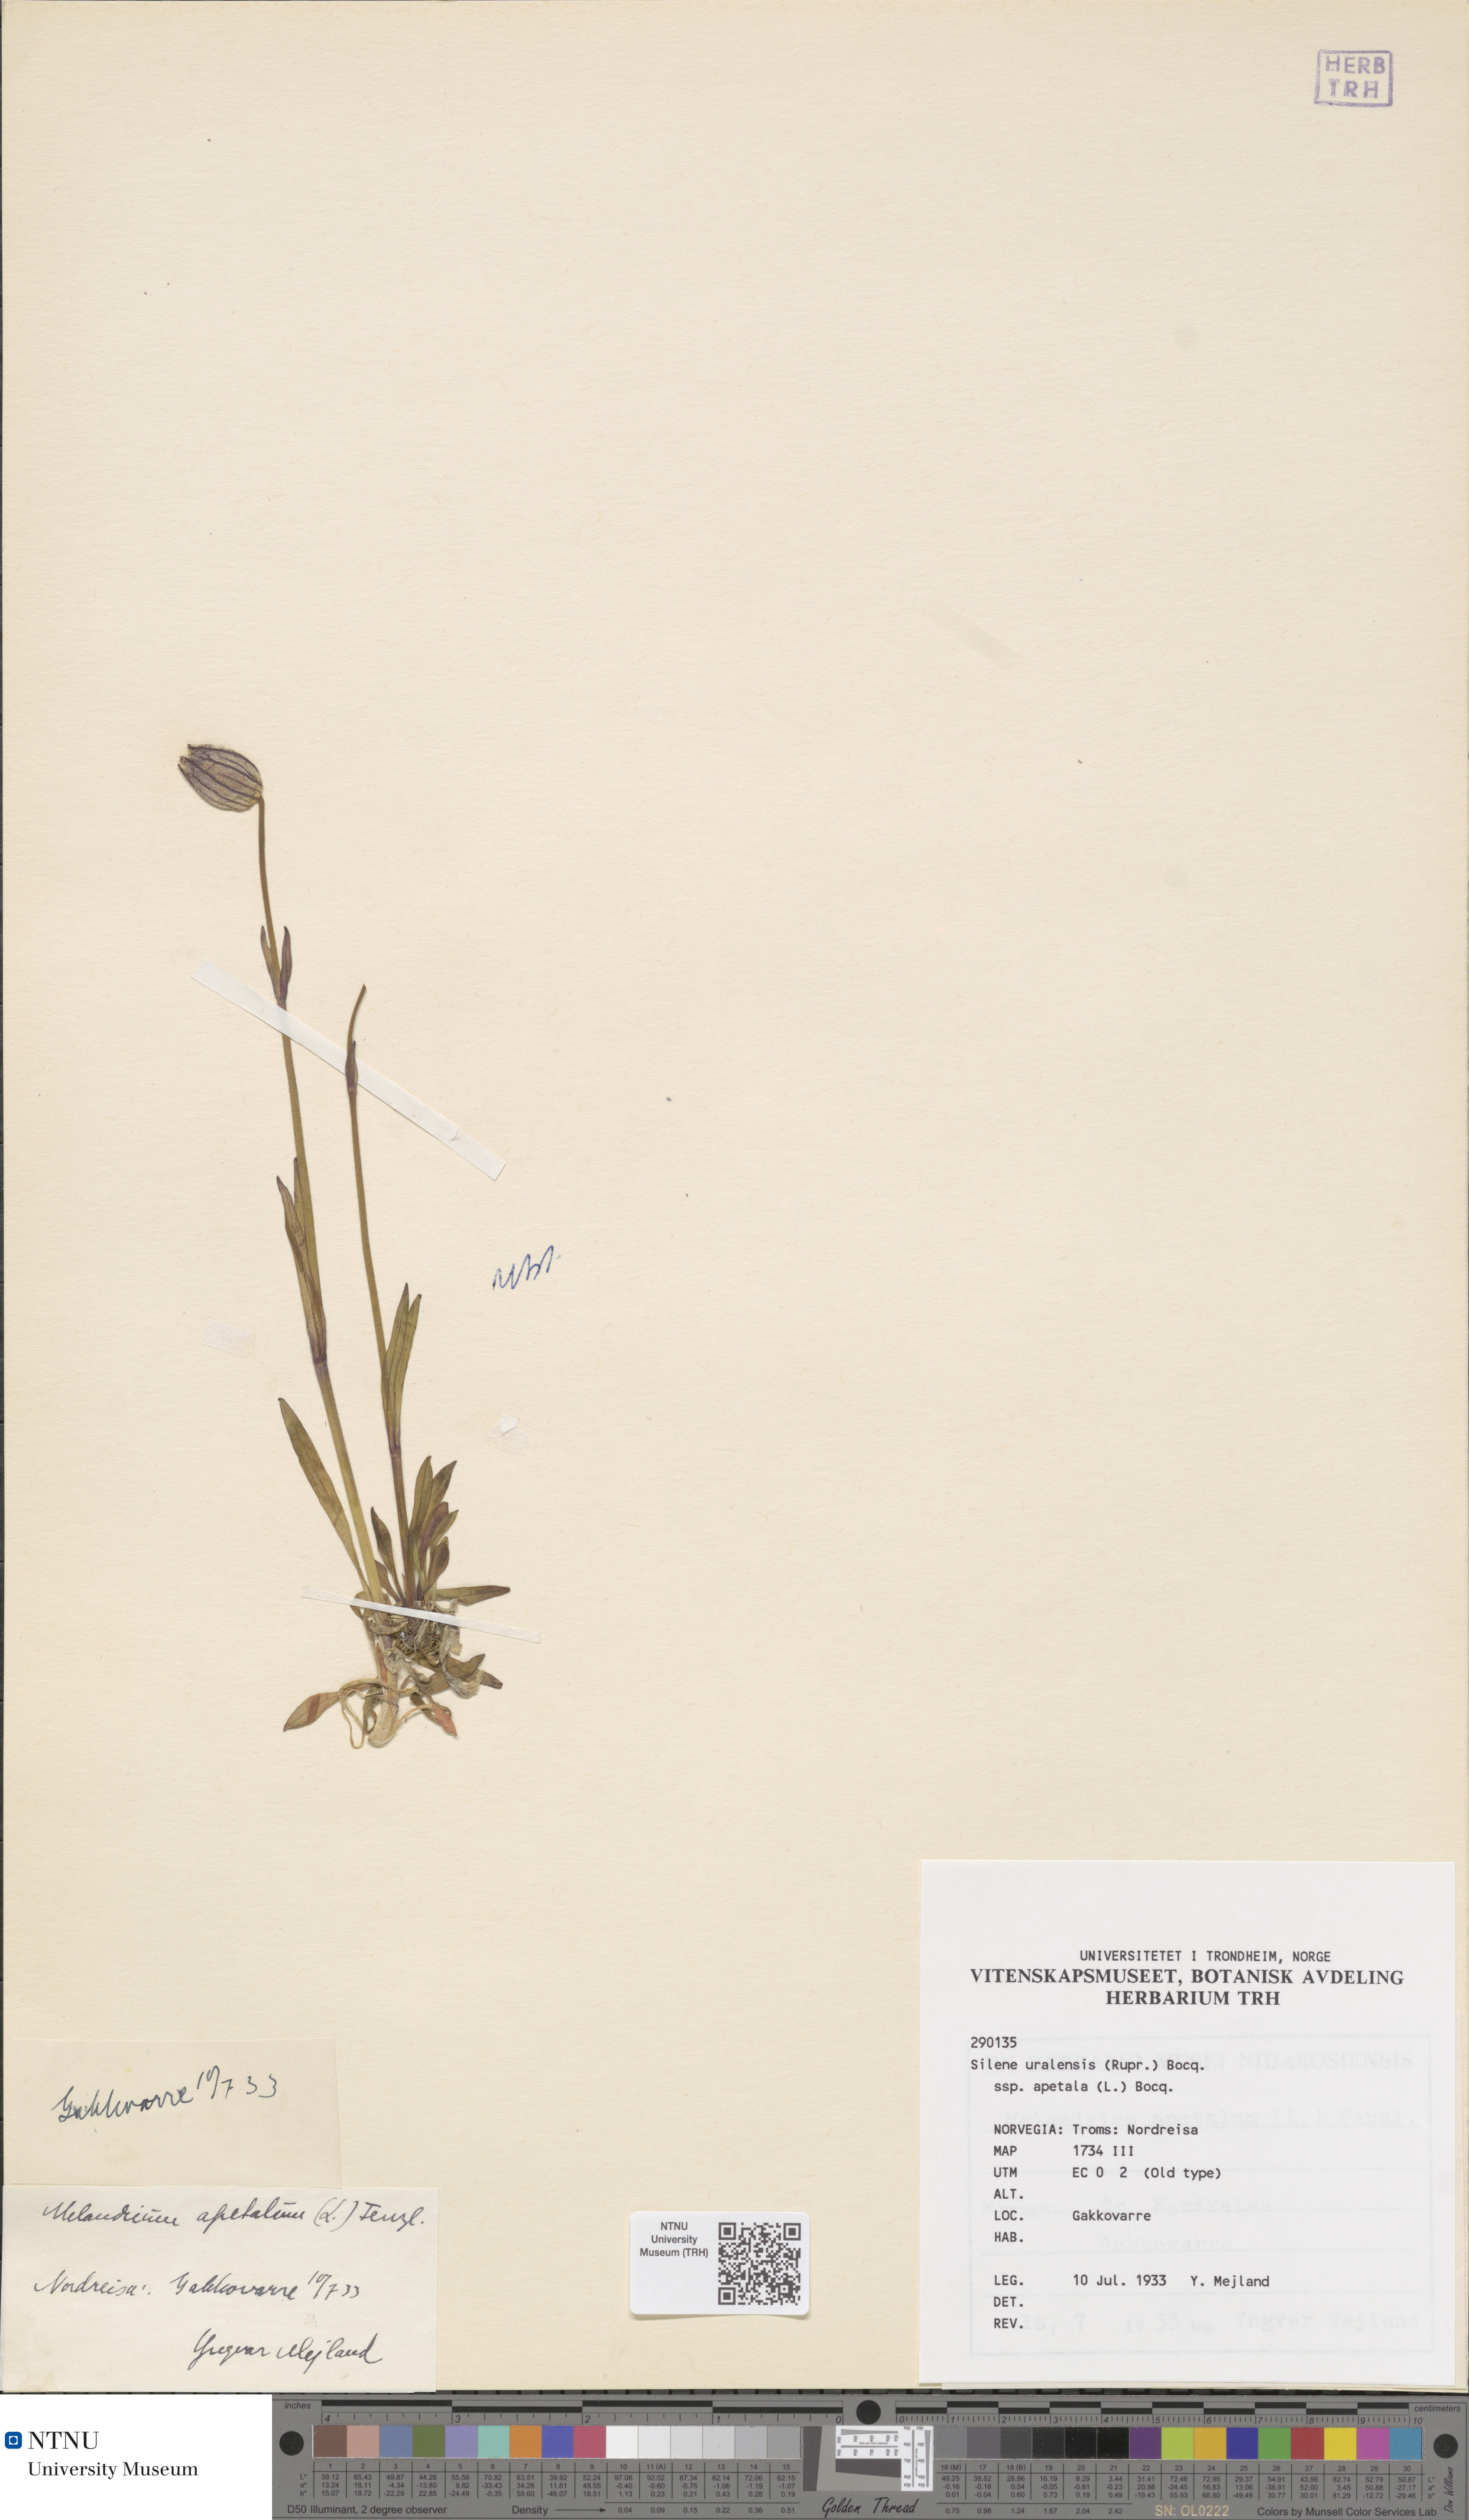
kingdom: Plantae
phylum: Tracheophyta
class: Magnoliopsida
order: Caryophyllales
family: Caryophyllaceae
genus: Silene
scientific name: Silene wahlbergella
